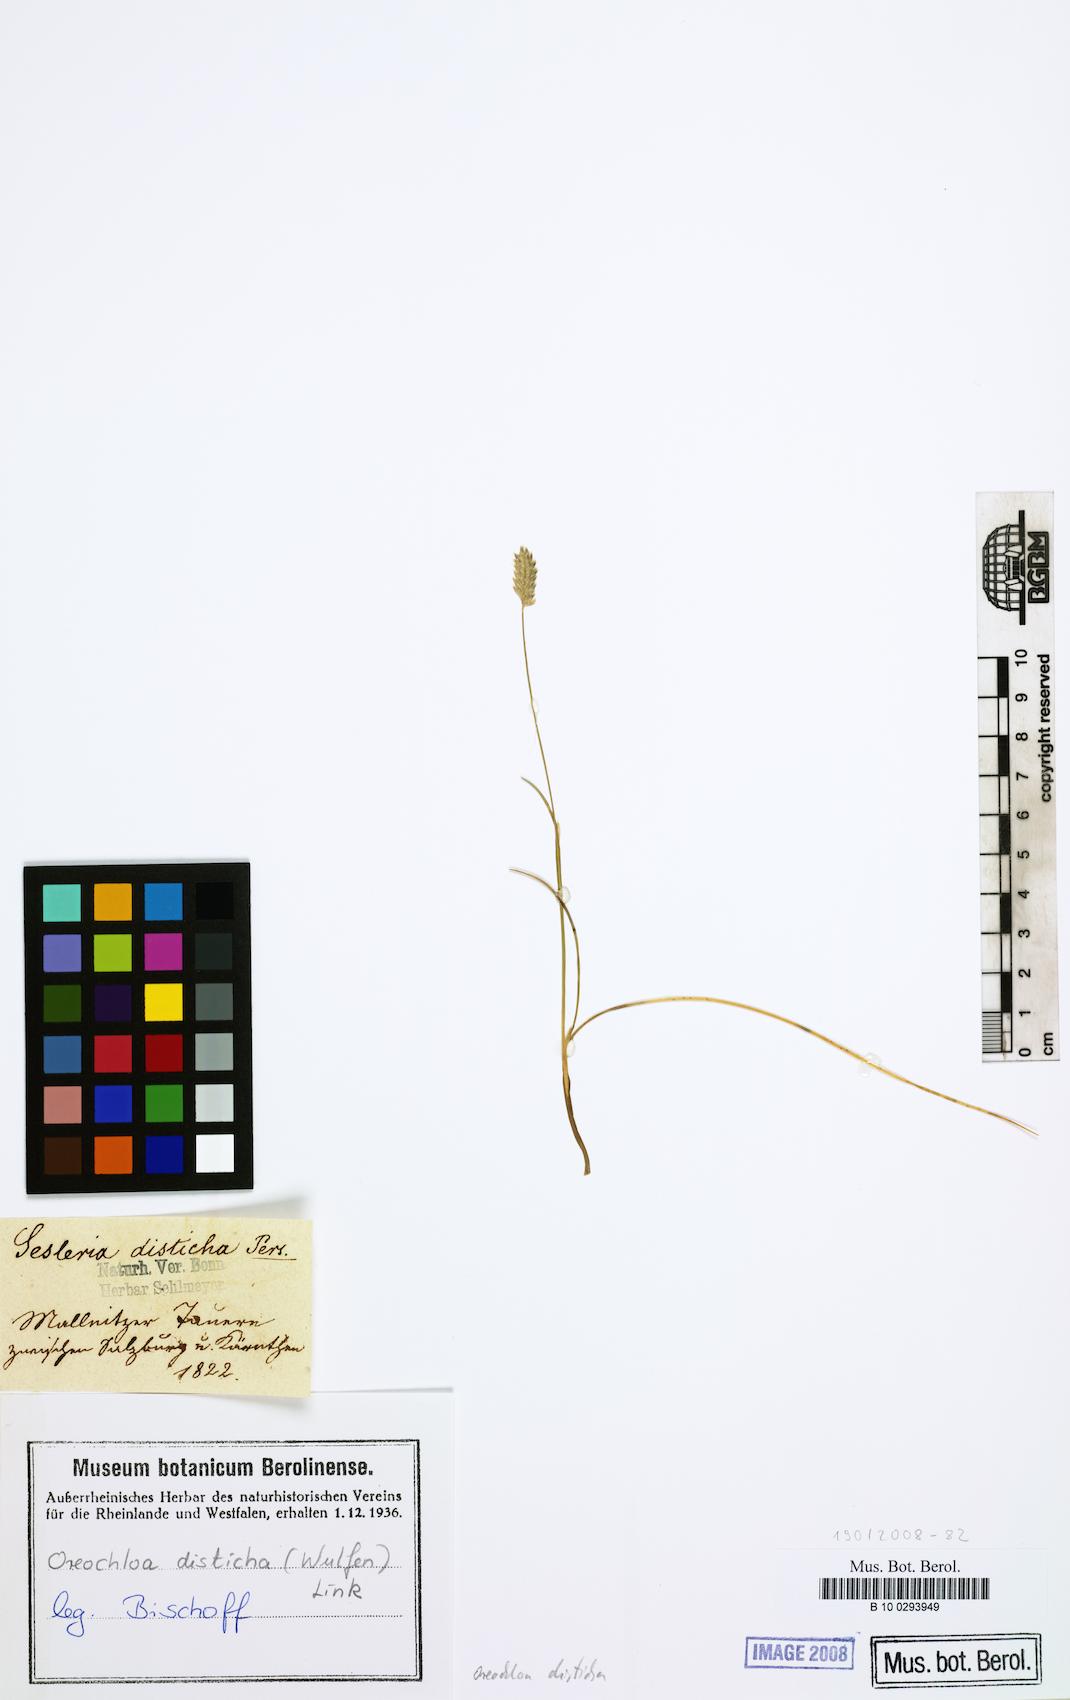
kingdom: Plantae
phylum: Tracheophyta
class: Liliopsida
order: Poales
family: Poaceae
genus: Oreochloa
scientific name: Oreochloa disticha
